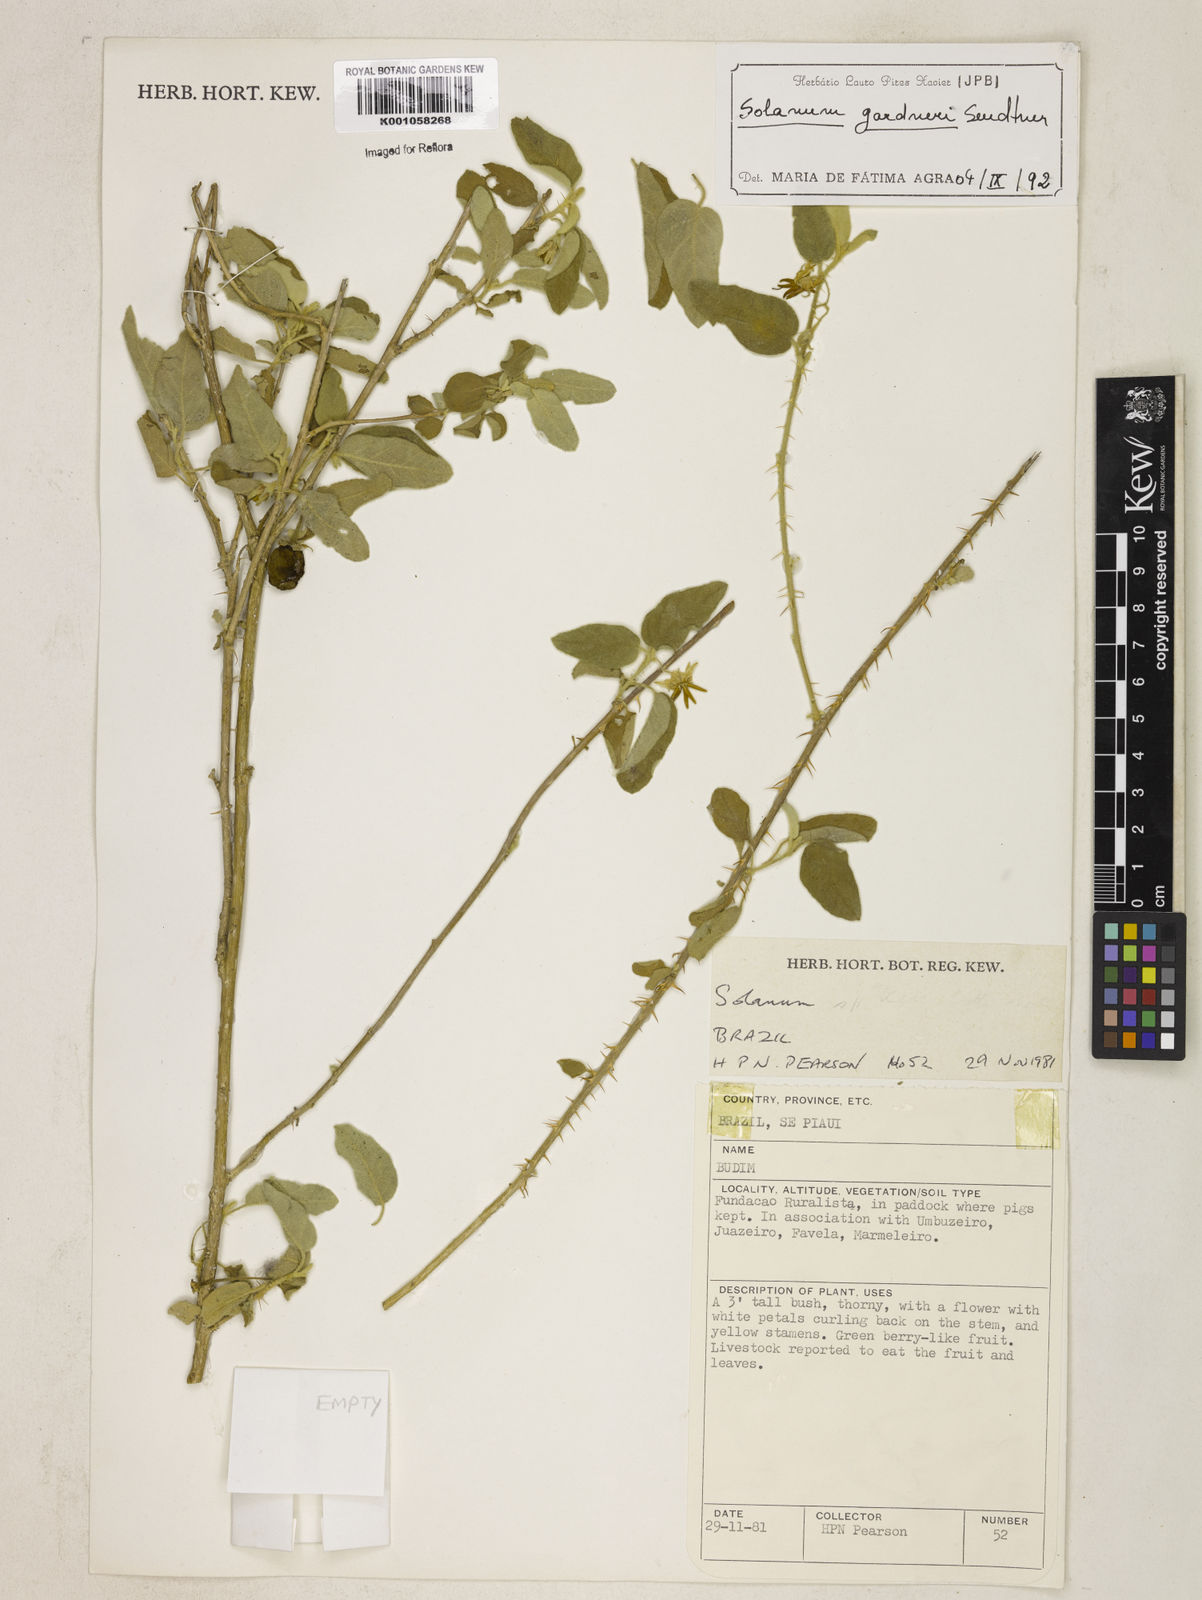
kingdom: Plantae
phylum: Tracheophyta
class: Magnoliopsida
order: Solanales
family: Solanaceae
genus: Solanum
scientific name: Solanum gardneri
